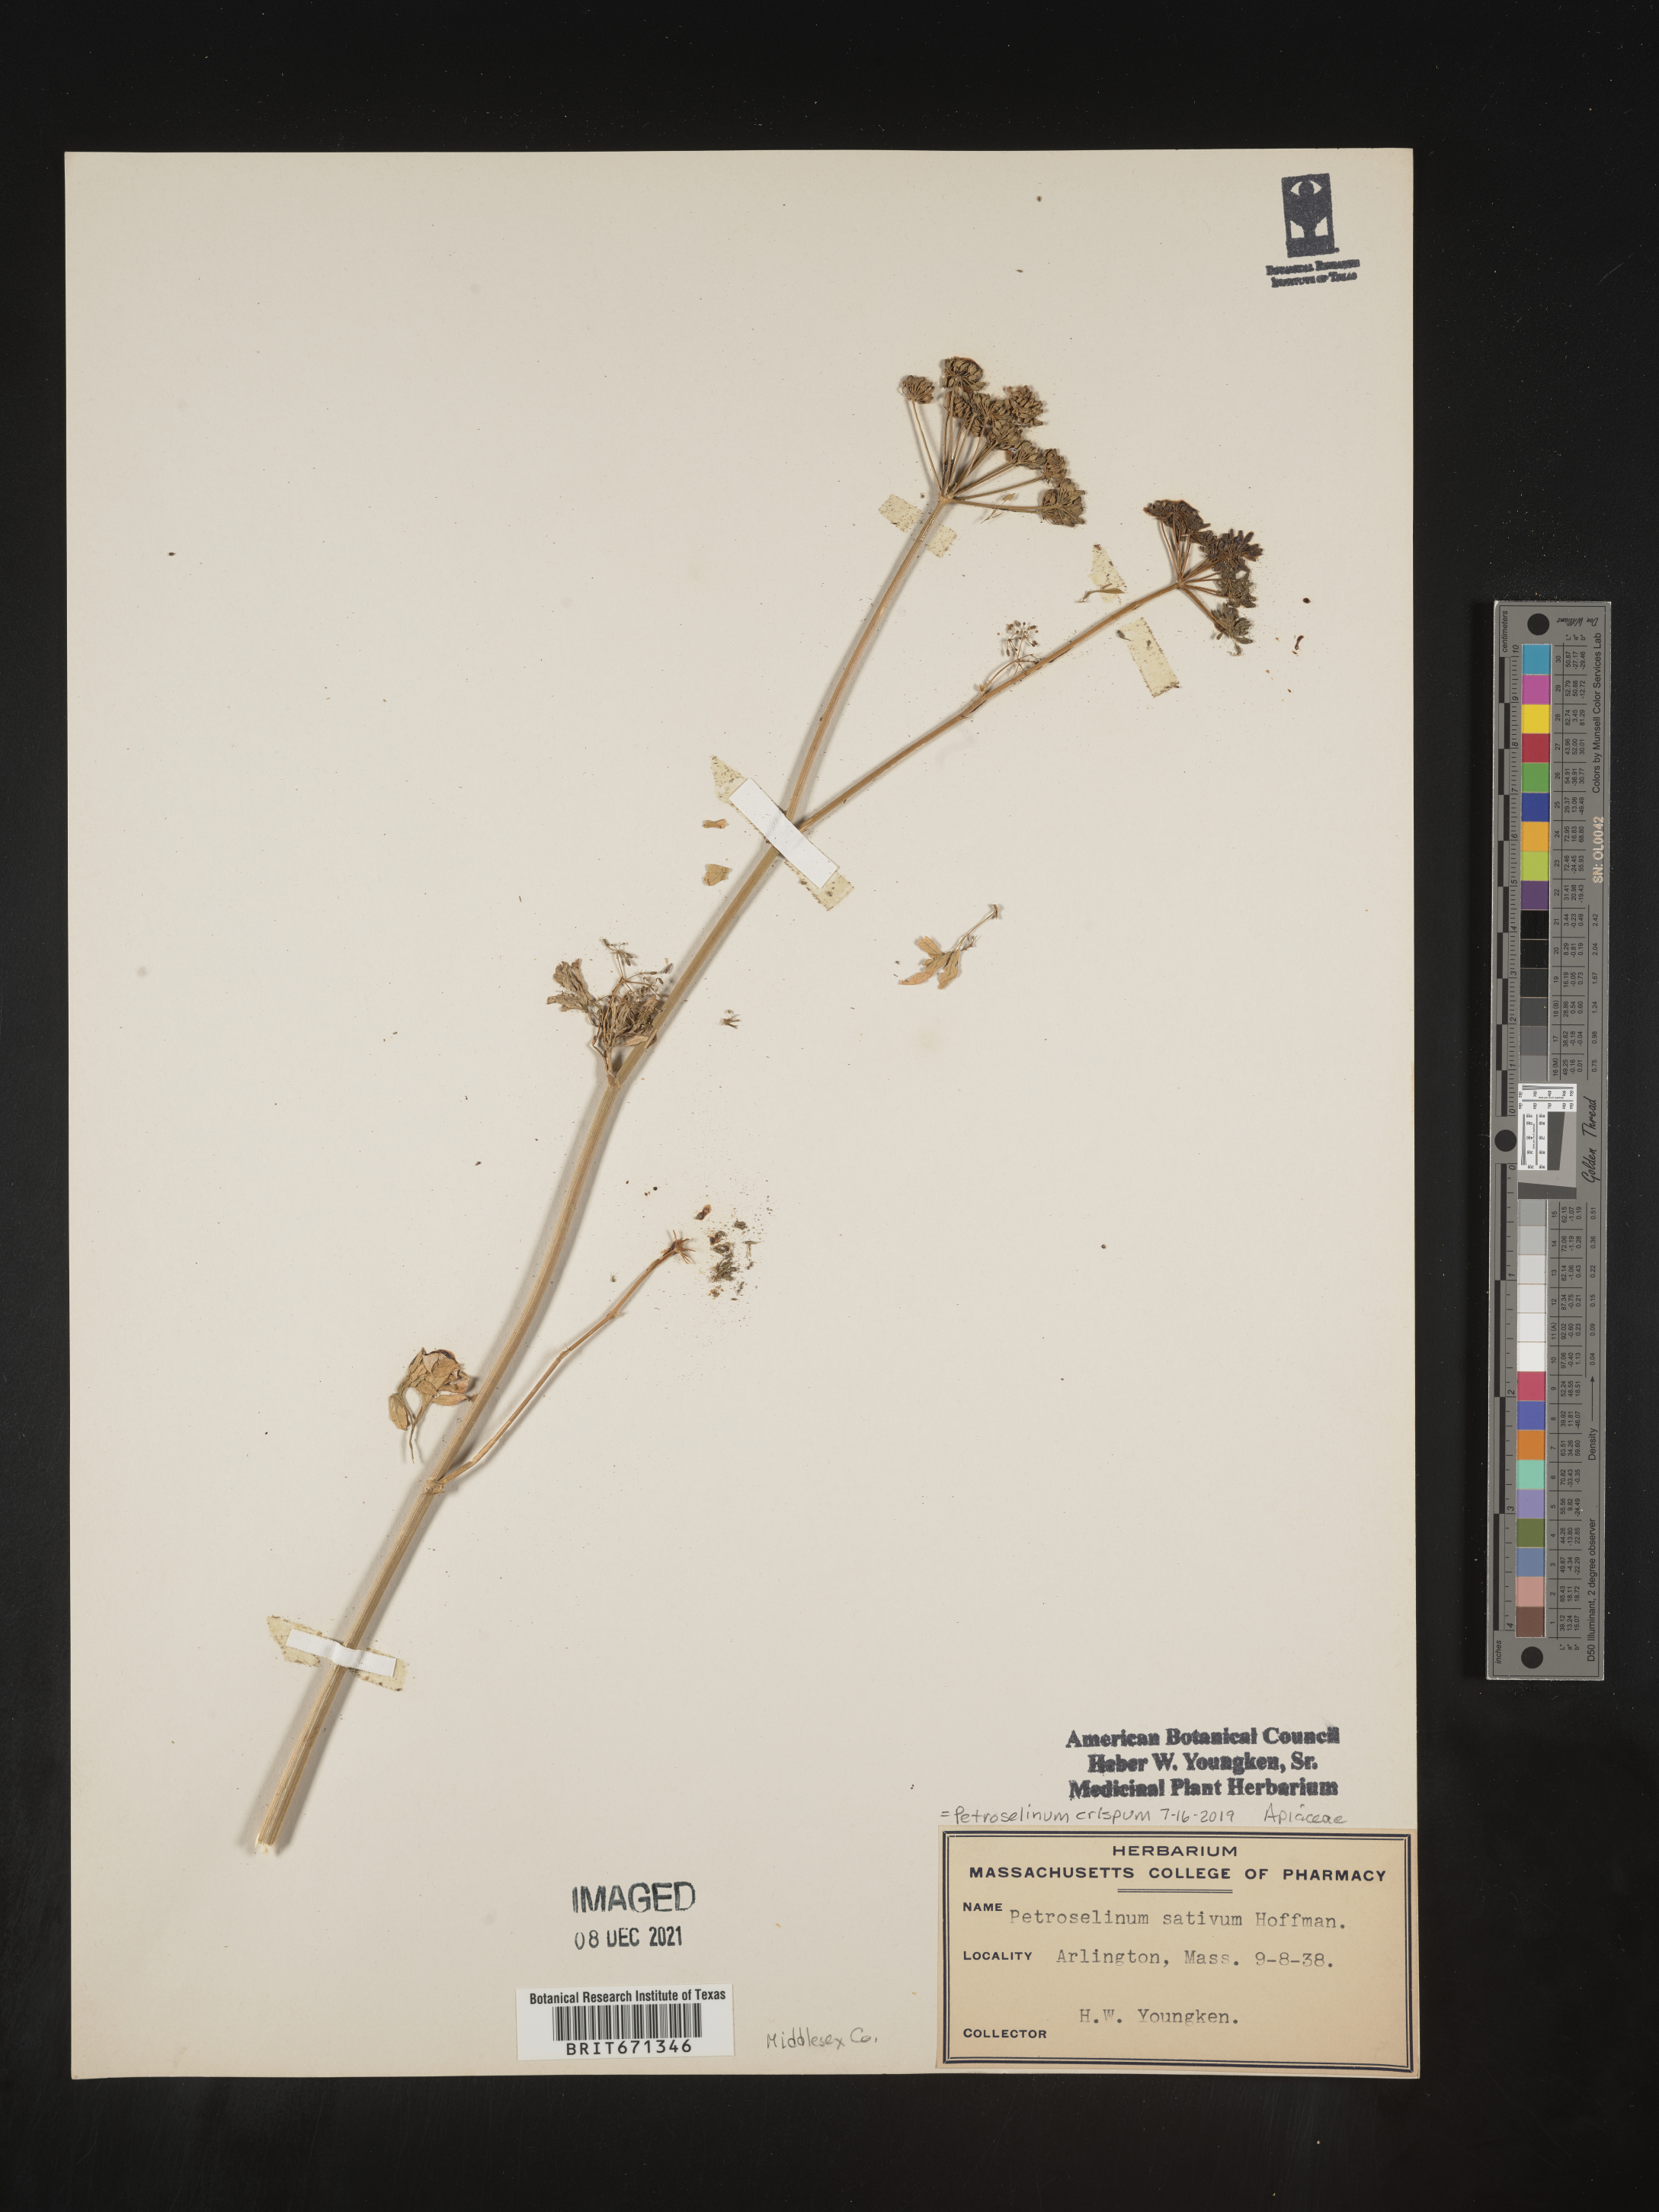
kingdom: Plantae
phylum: Tracheophyta
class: Magnoliopsida
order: Apiales
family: Apiaceae
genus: Petroselinum
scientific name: Petroselinum
